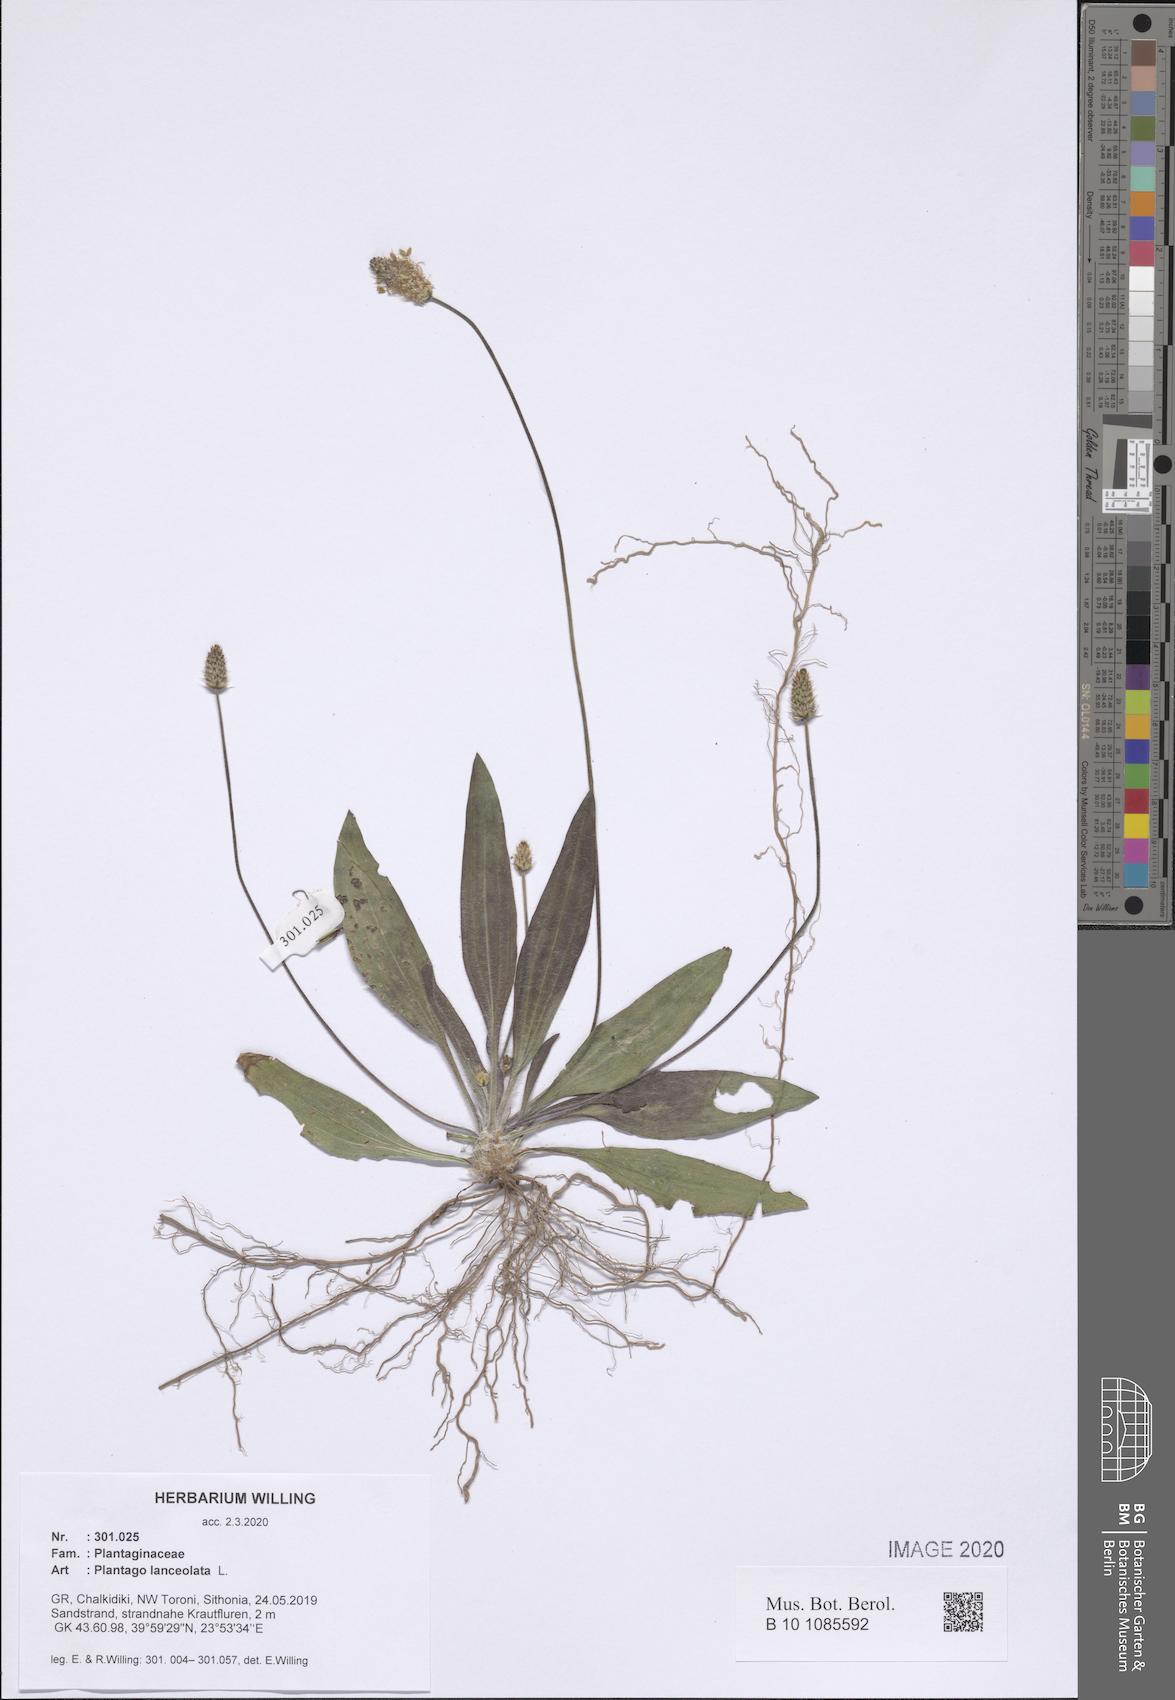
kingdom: Plantae
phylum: Tracheophyta
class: Magnoliopsida
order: Lamiales
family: Plantaginaceae
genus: Plantago
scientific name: Plantago lanceolata
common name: Ribwort plantain
